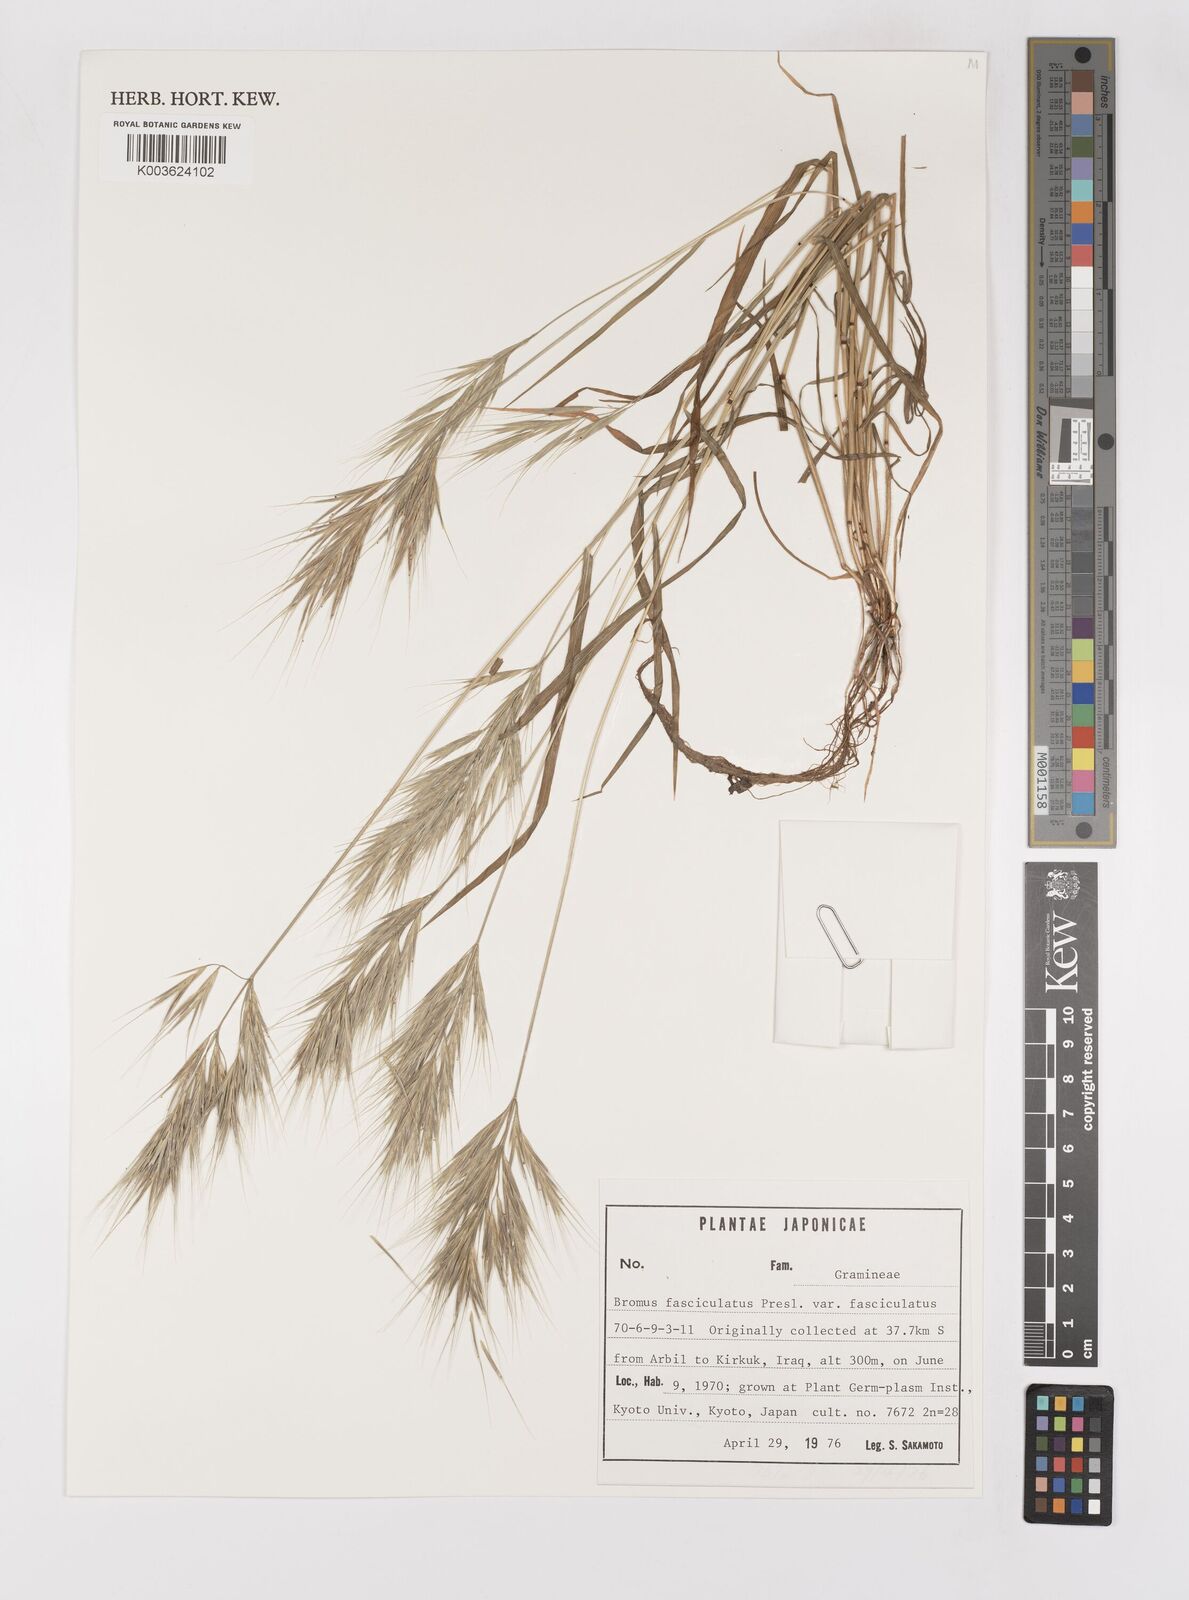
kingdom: Plantae
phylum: Tracheophyta
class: Liliopsida
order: Poales
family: Poaceae
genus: Bromus
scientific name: Bromus fasciculatus
